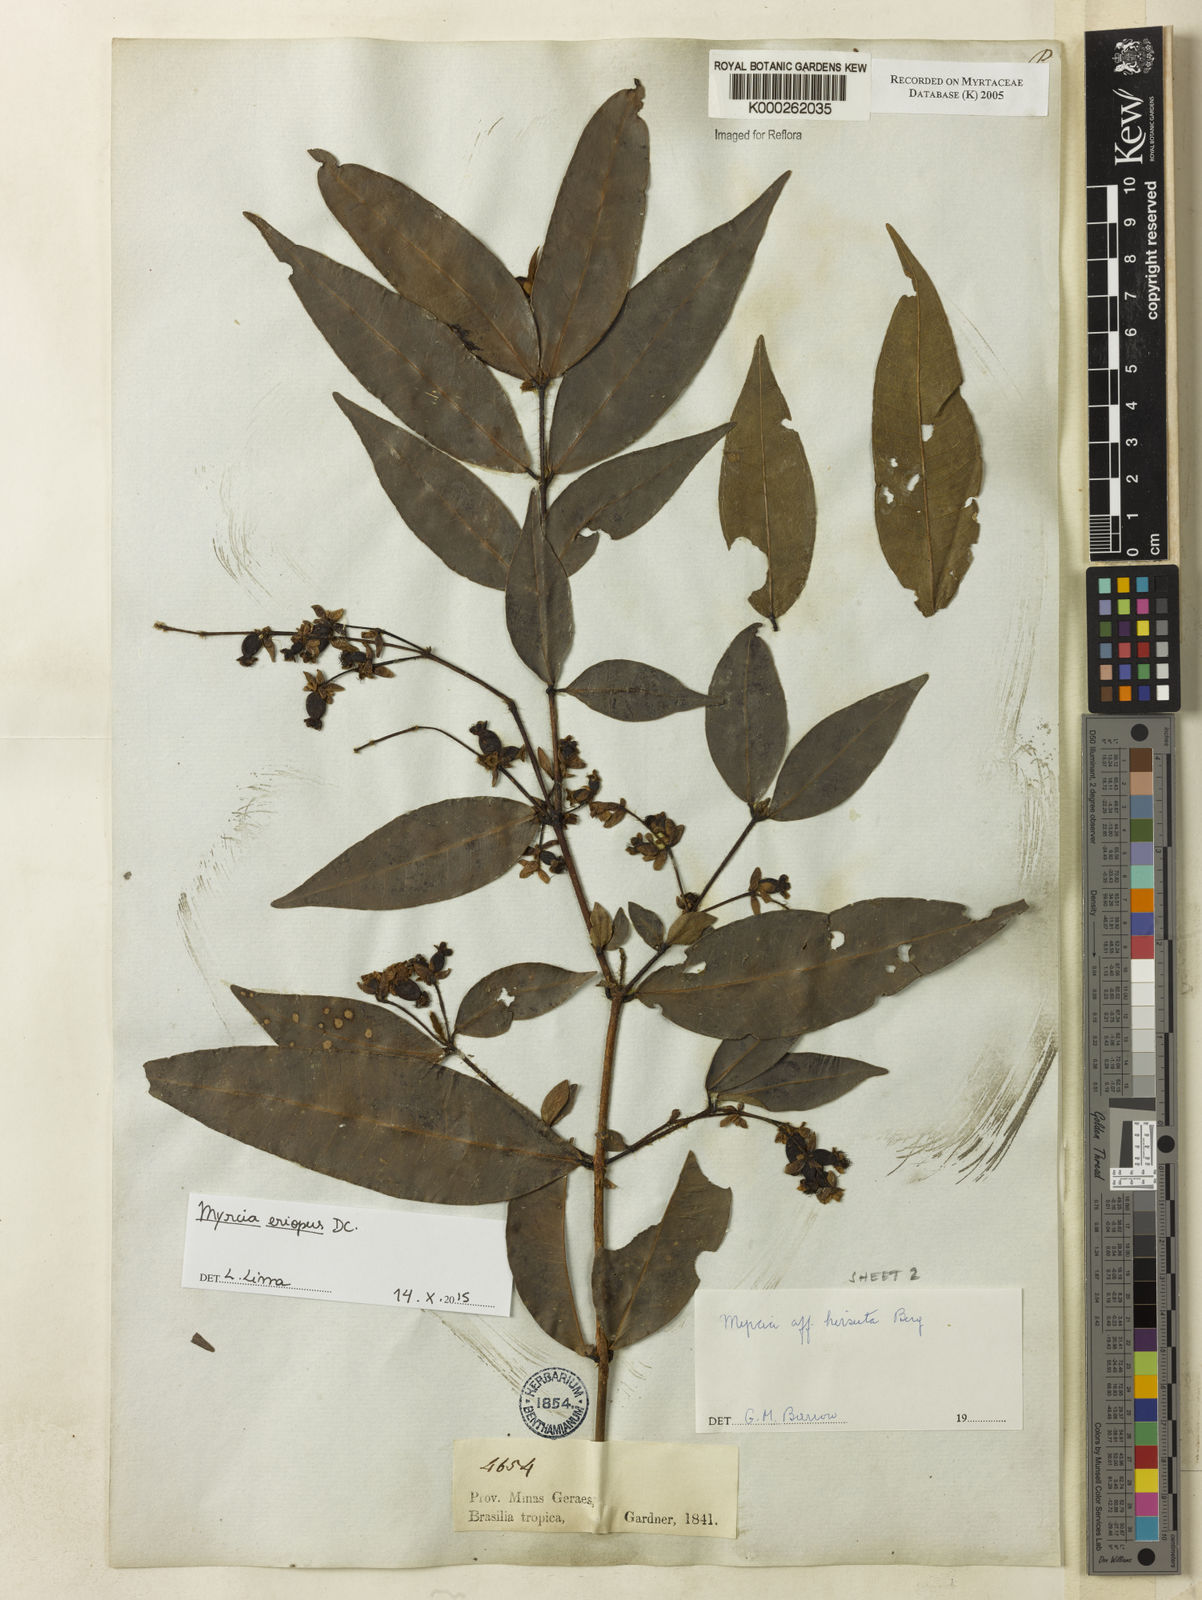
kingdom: Plantae
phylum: Tracheophyta
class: Magnoliopsida
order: Myrtales
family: Myrtaceae
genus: Myrcia
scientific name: Myrcia eriopus
